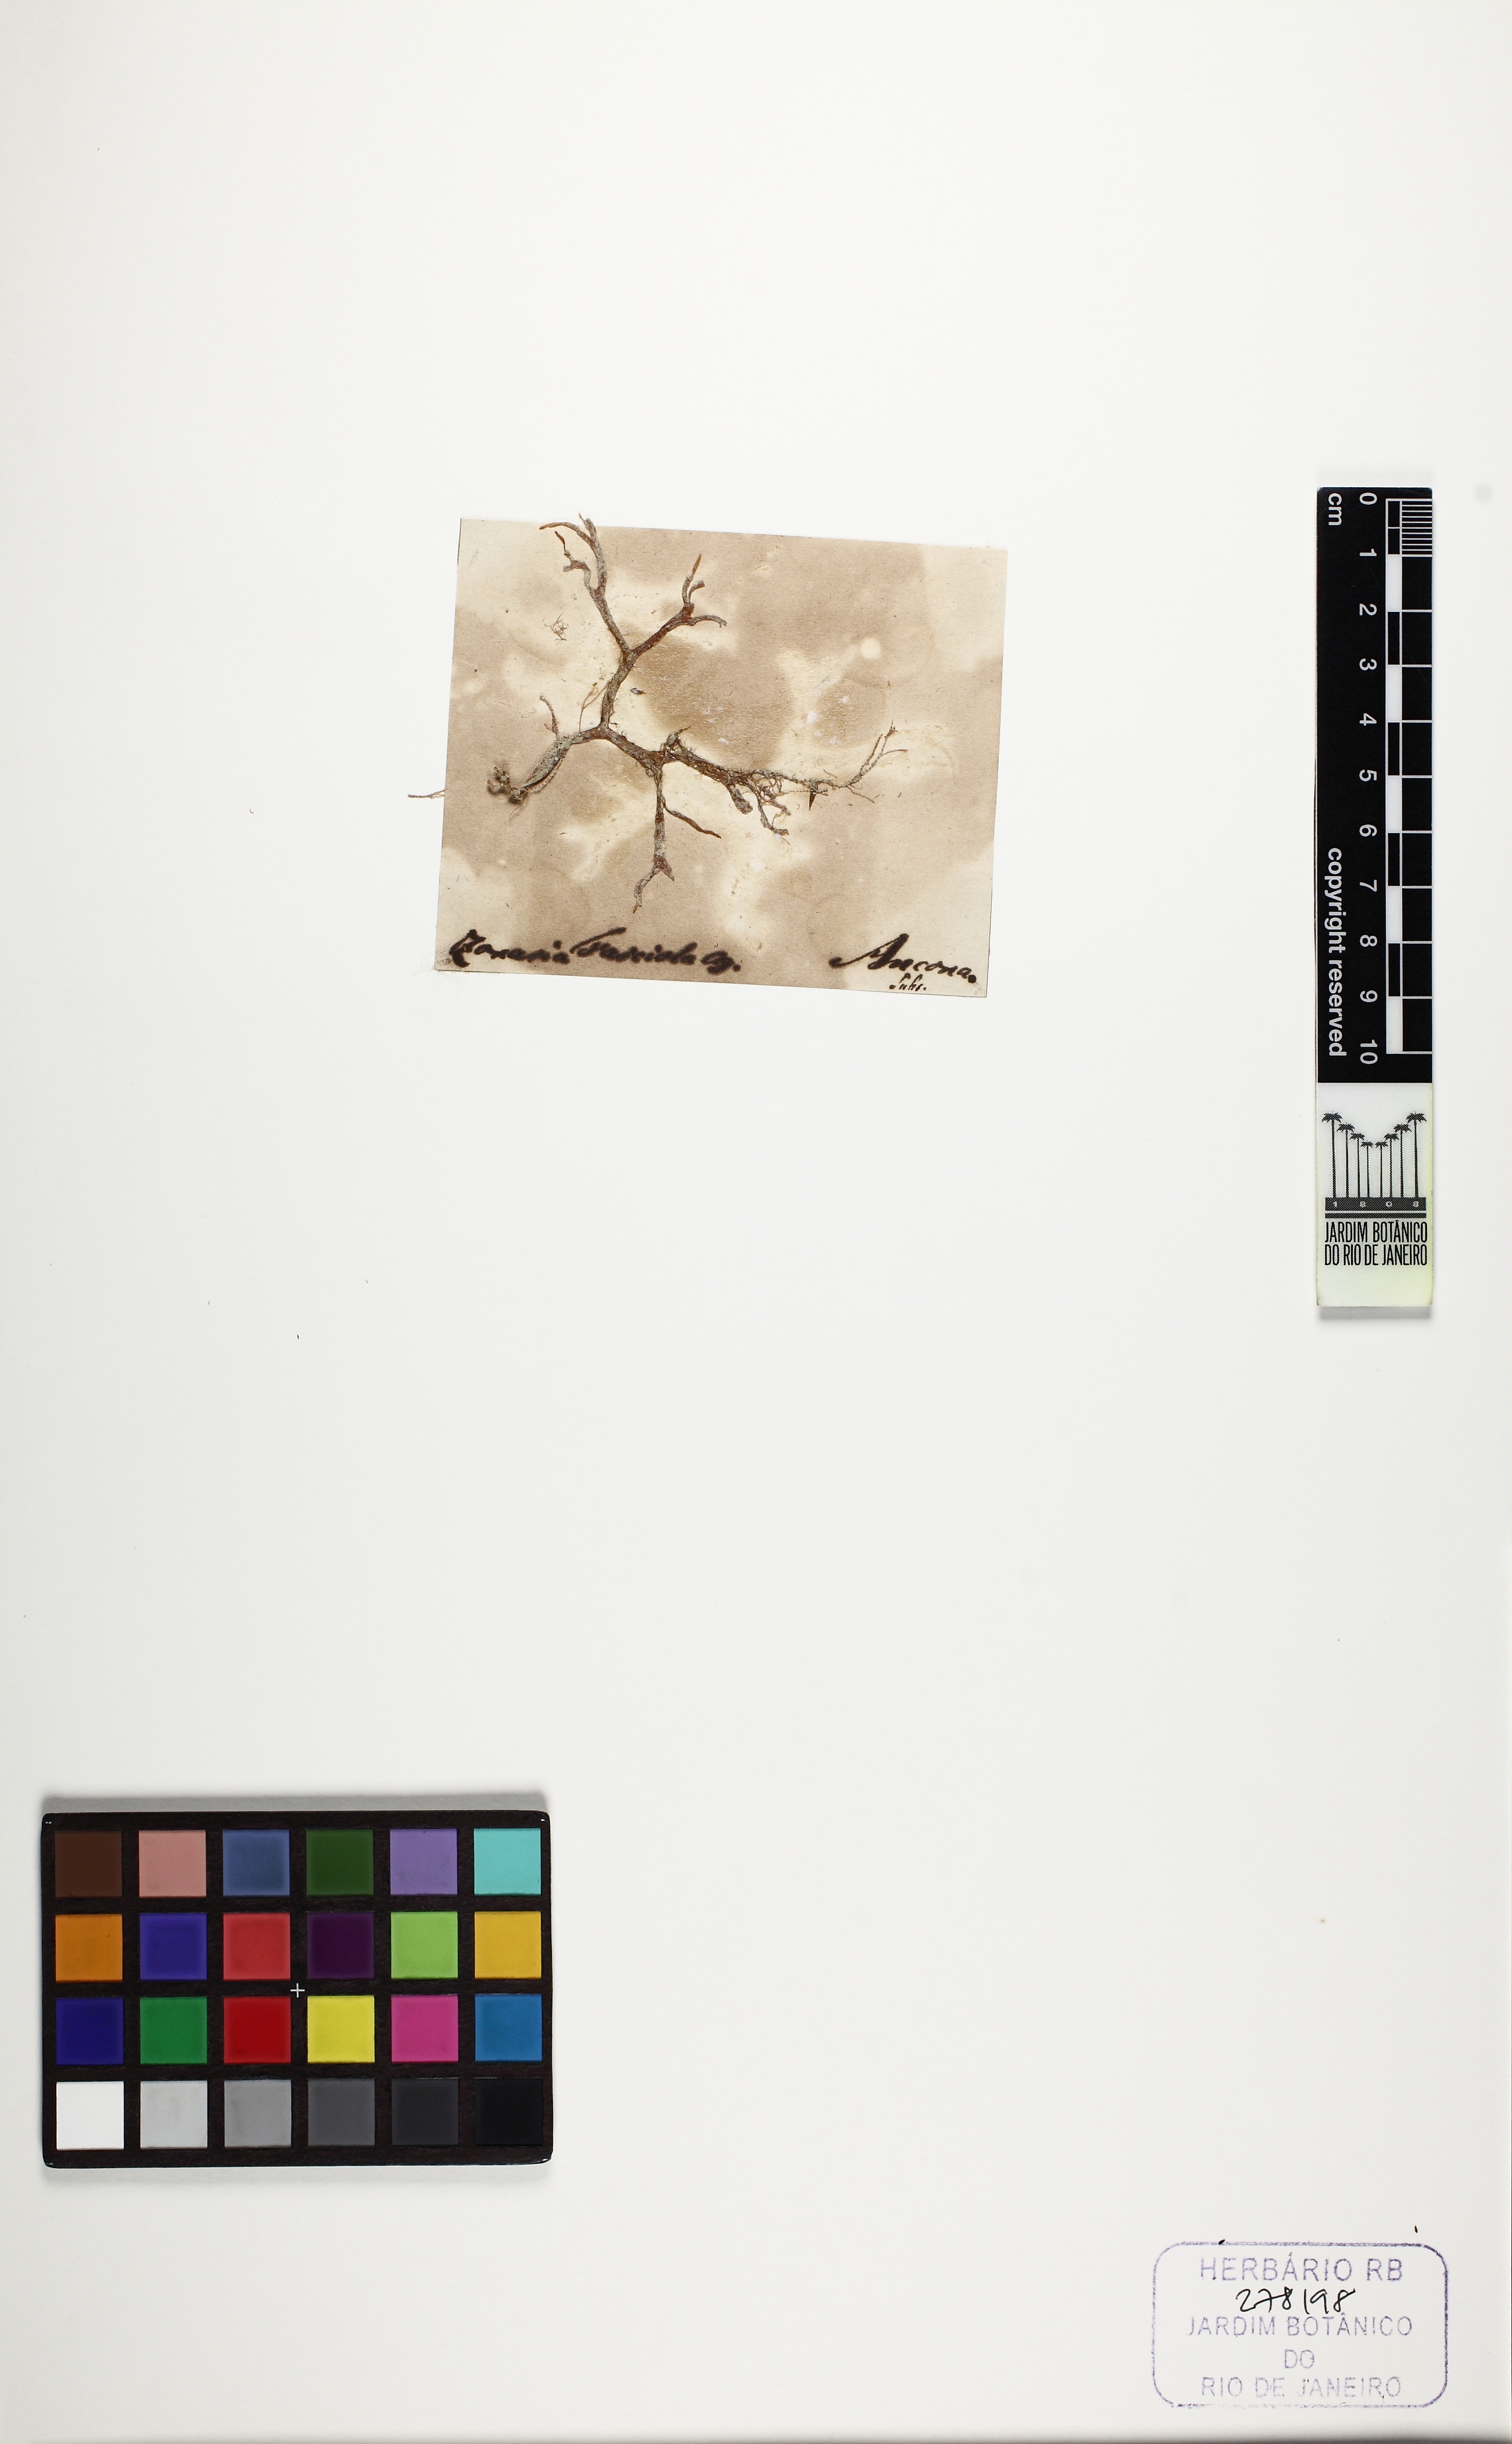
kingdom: Chromista
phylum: Ochrophyta
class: Phaeophyceae
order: Dictyotales
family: Dictyotaceae
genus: Dictyota
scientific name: Dictyota fasciola
